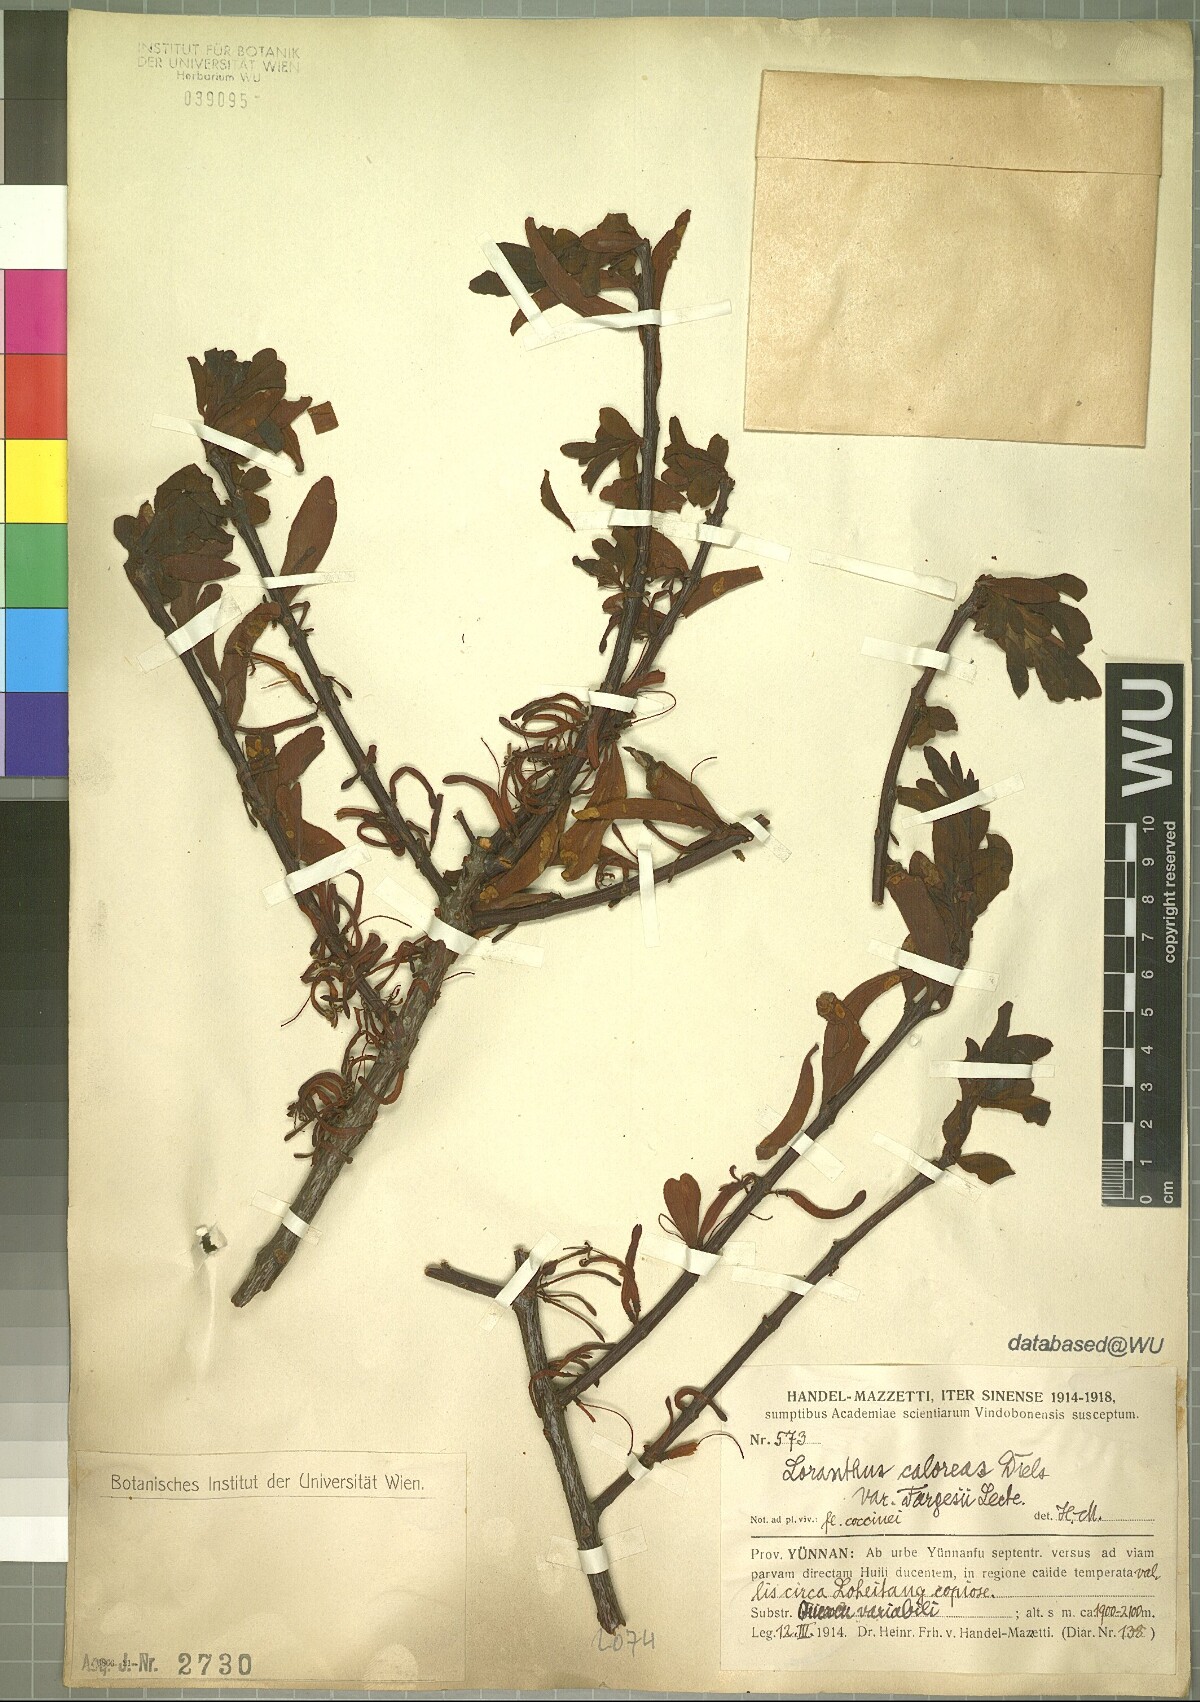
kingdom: Plantae
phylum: Tracheophyta
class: Magnoliopsida
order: Santalales
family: Loranthaceae
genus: Taxillus
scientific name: Taxillus caloreas
